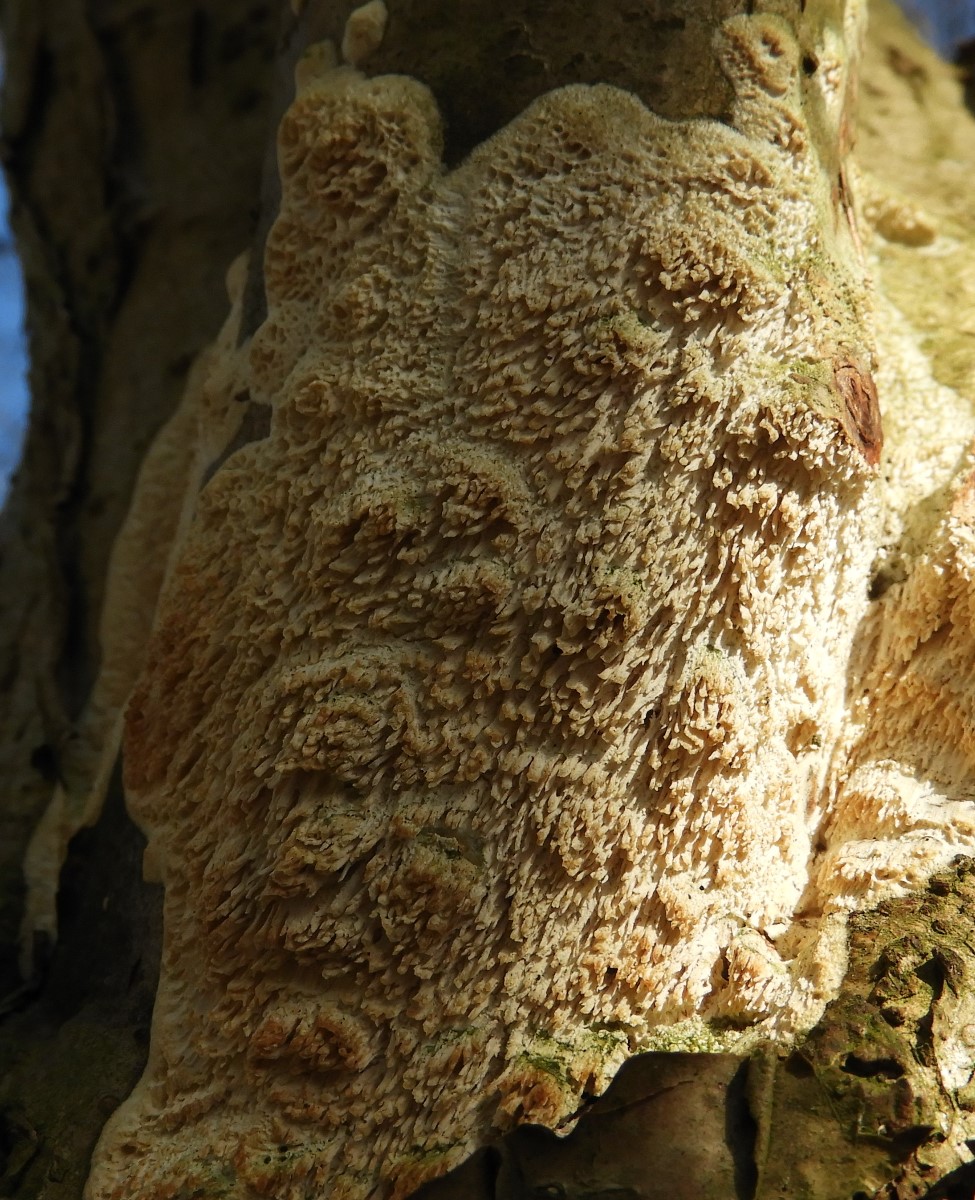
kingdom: Fungi
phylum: Basidiomycota
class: Agaricomycetes
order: Hymenochaetales
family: Schizoporaceae
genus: Xylodon
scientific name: Xylodon
